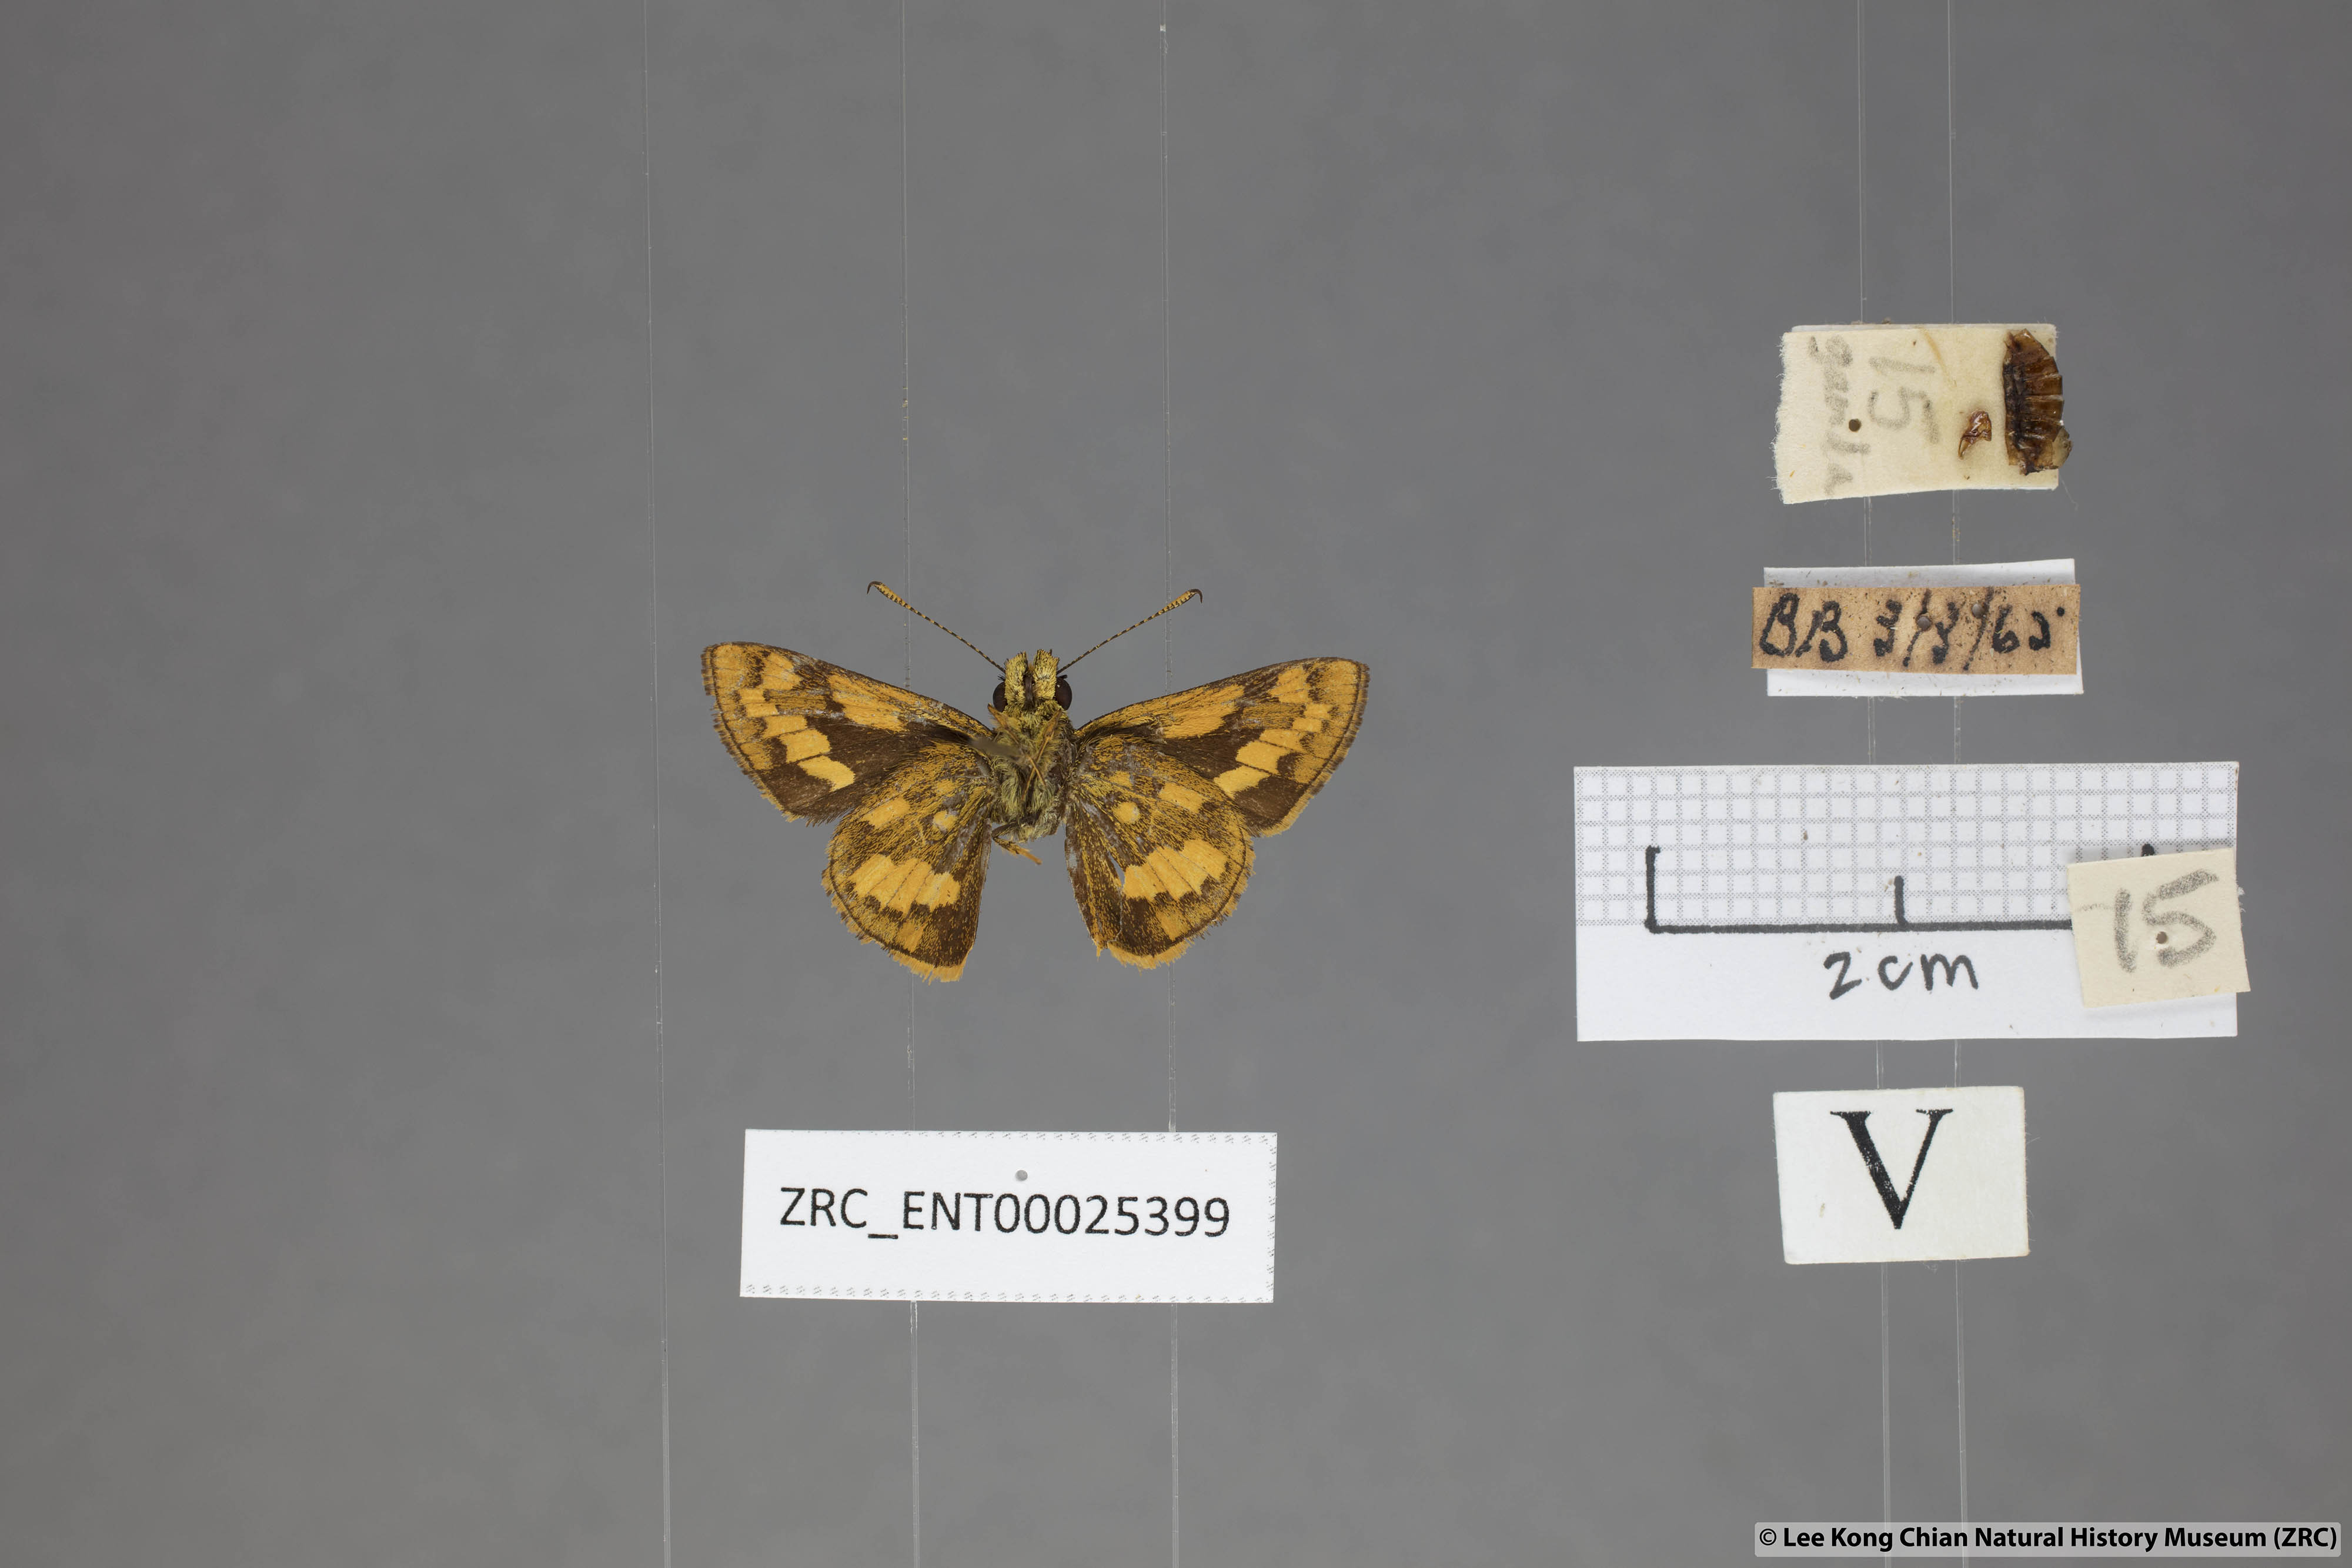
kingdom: Animalia
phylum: Arthropoda
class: Insecta
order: Lepidoptera
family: Hesperiidae
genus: Potanthus
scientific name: Potanthus ganda
